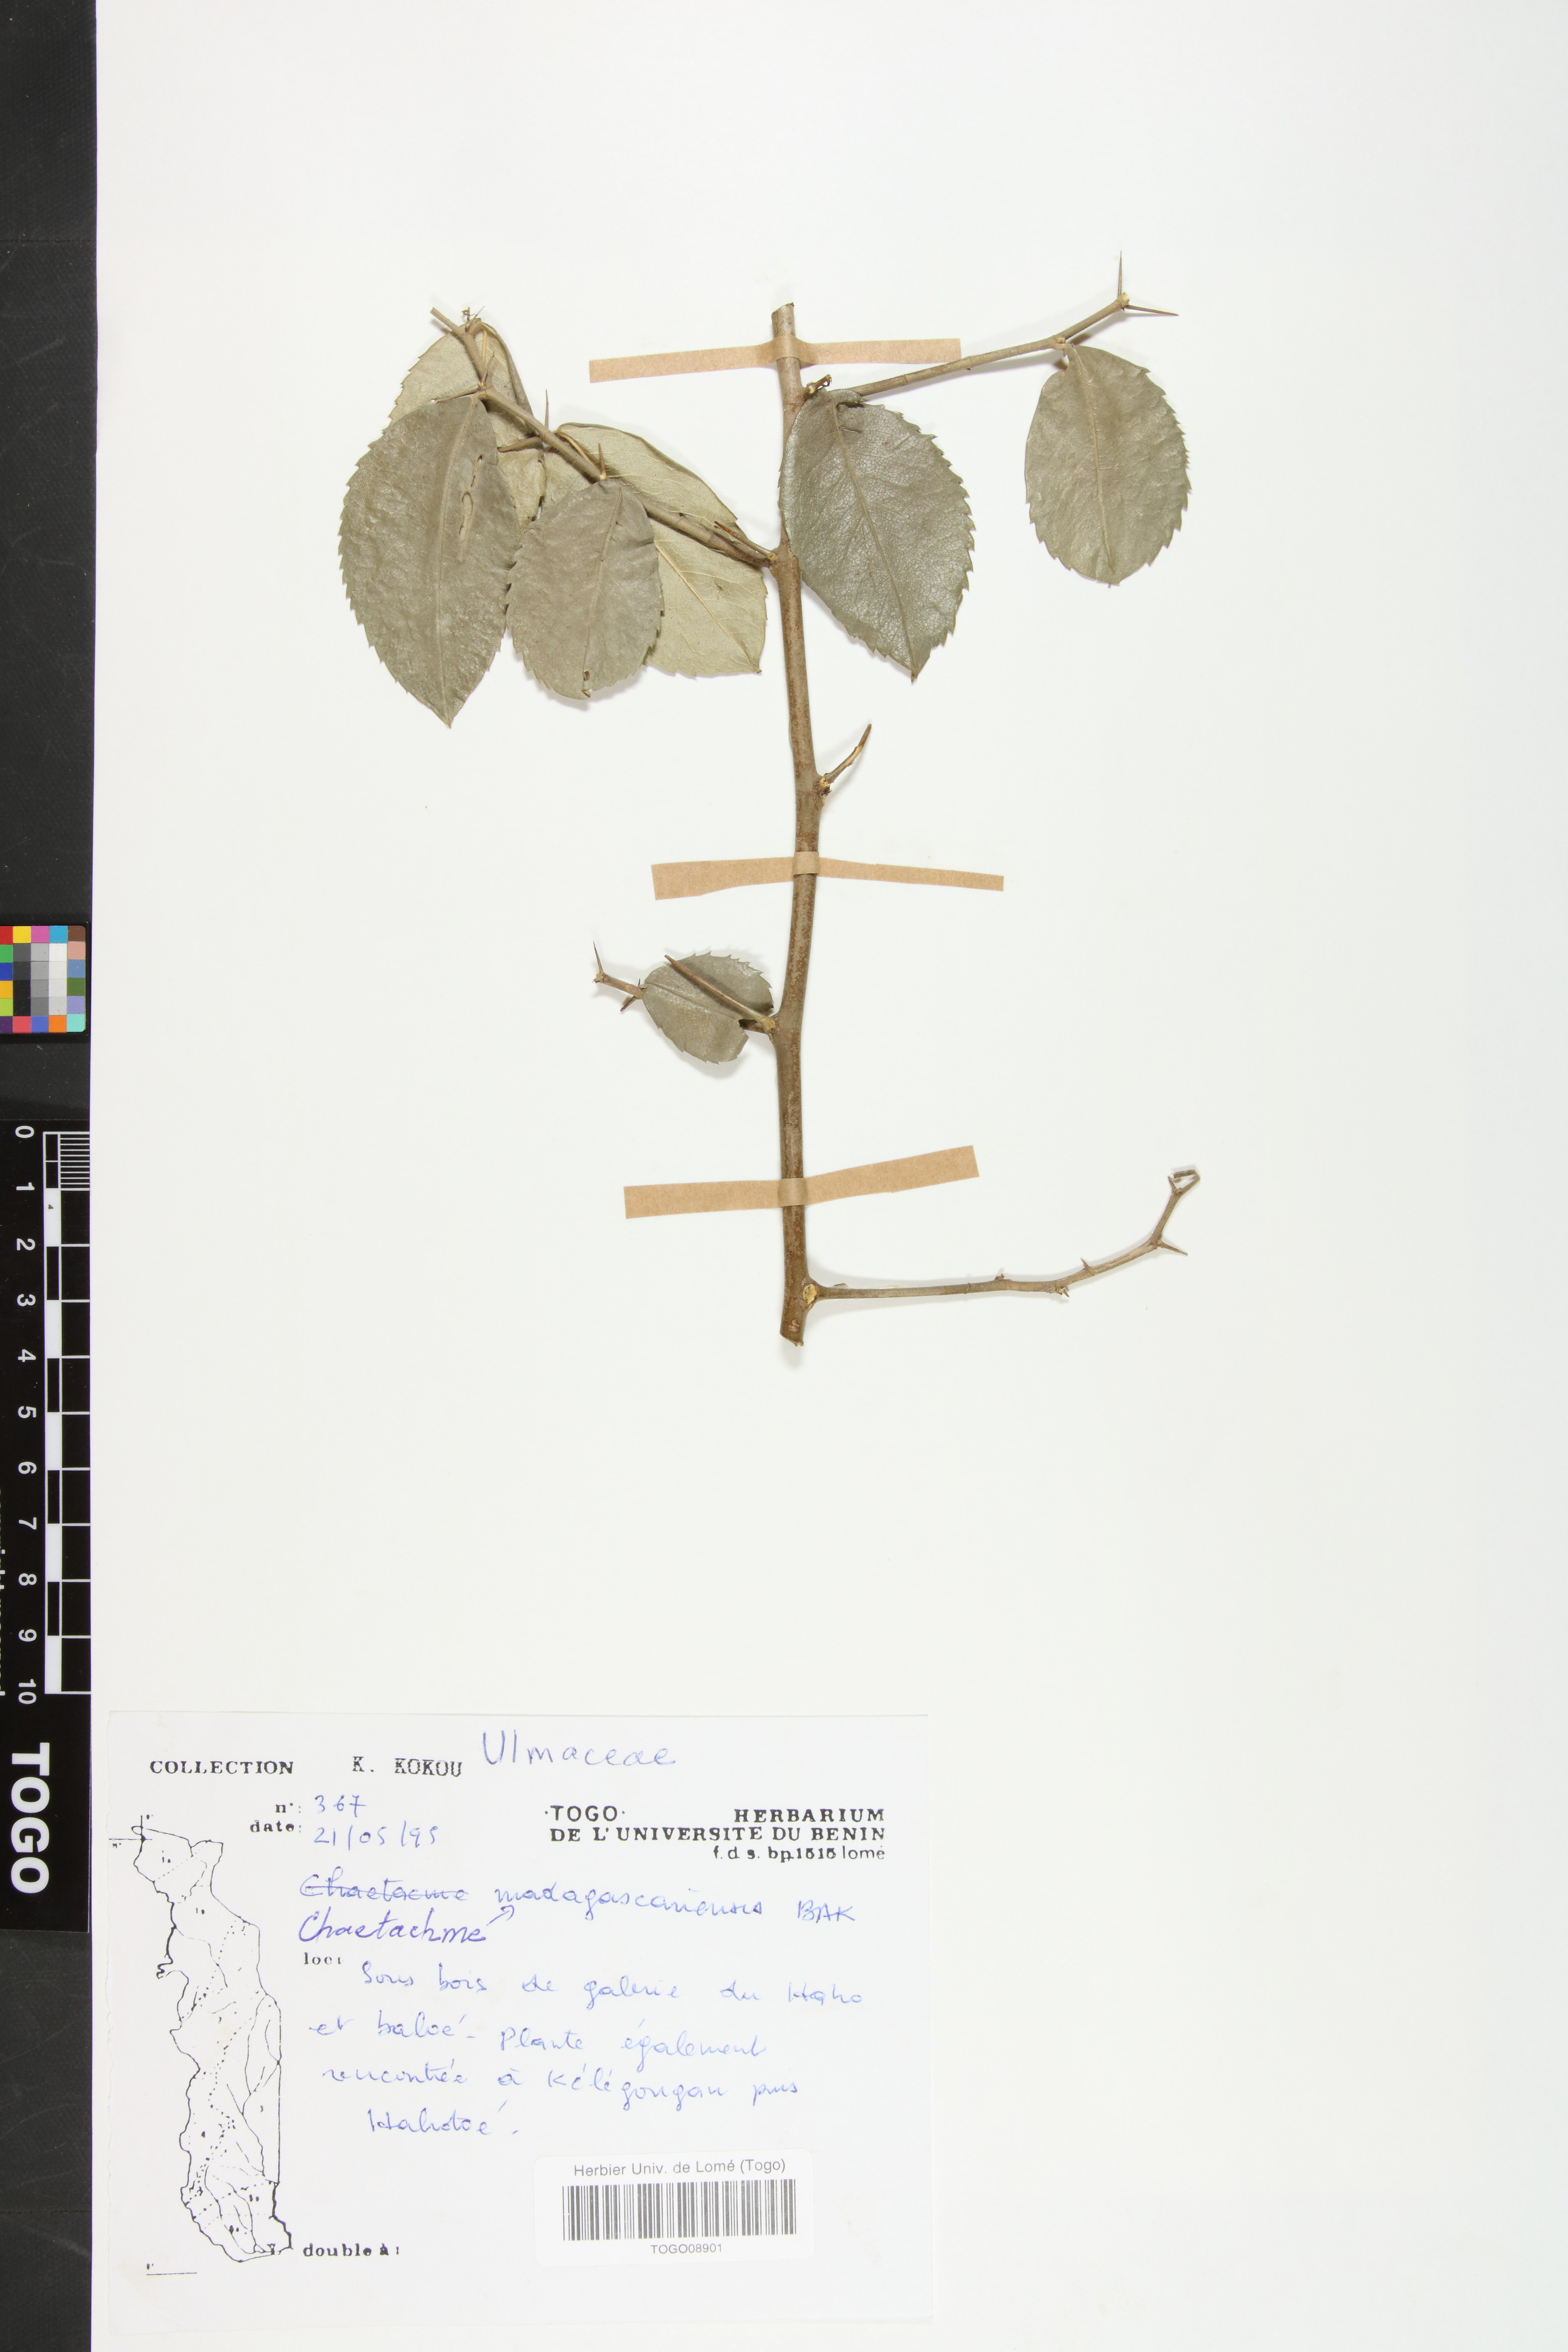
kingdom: Plantae
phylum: Tracheophyta
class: Magnoliopsida
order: Rosales
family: Cannabaceae
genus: Chaetacme
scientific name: Chaetacme
